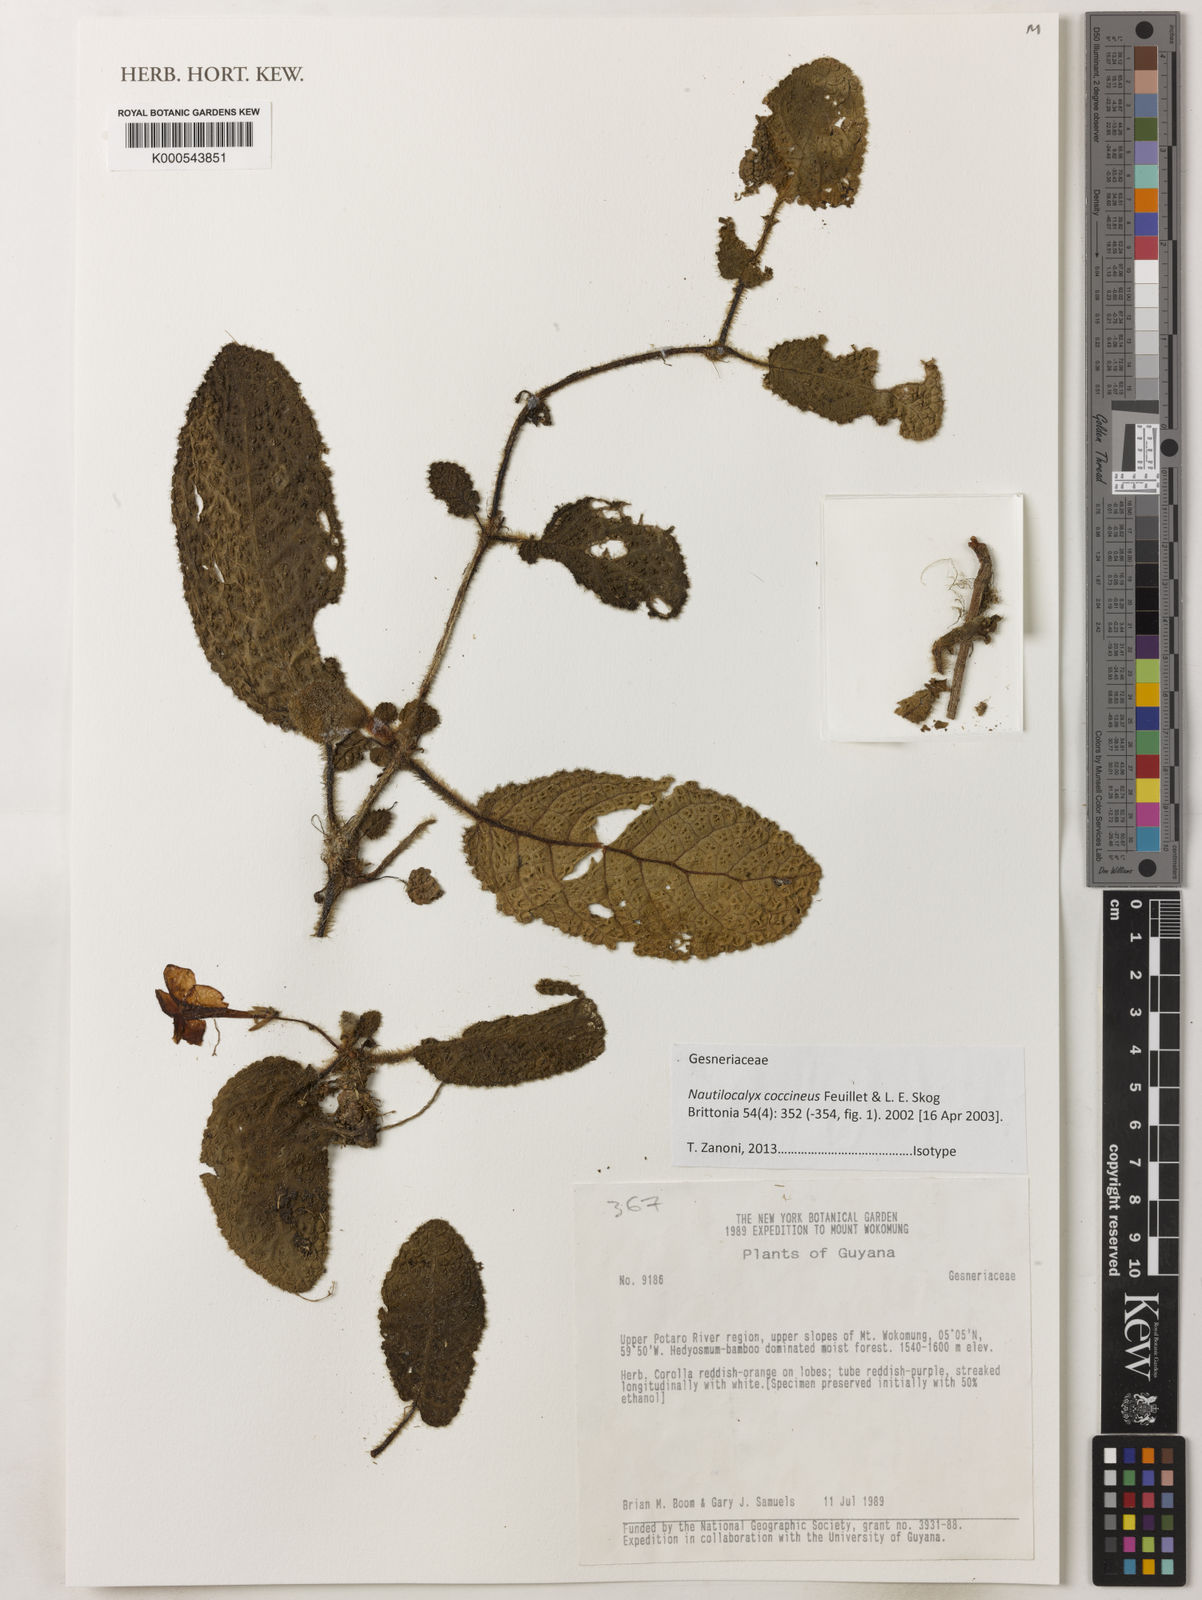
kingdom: Plantae
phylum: Tracheophyta
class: Magnoliopsida
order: Lamiales
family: Gesneriaceae
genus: Centrosolenia
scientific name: Centrosolenia coccinea
